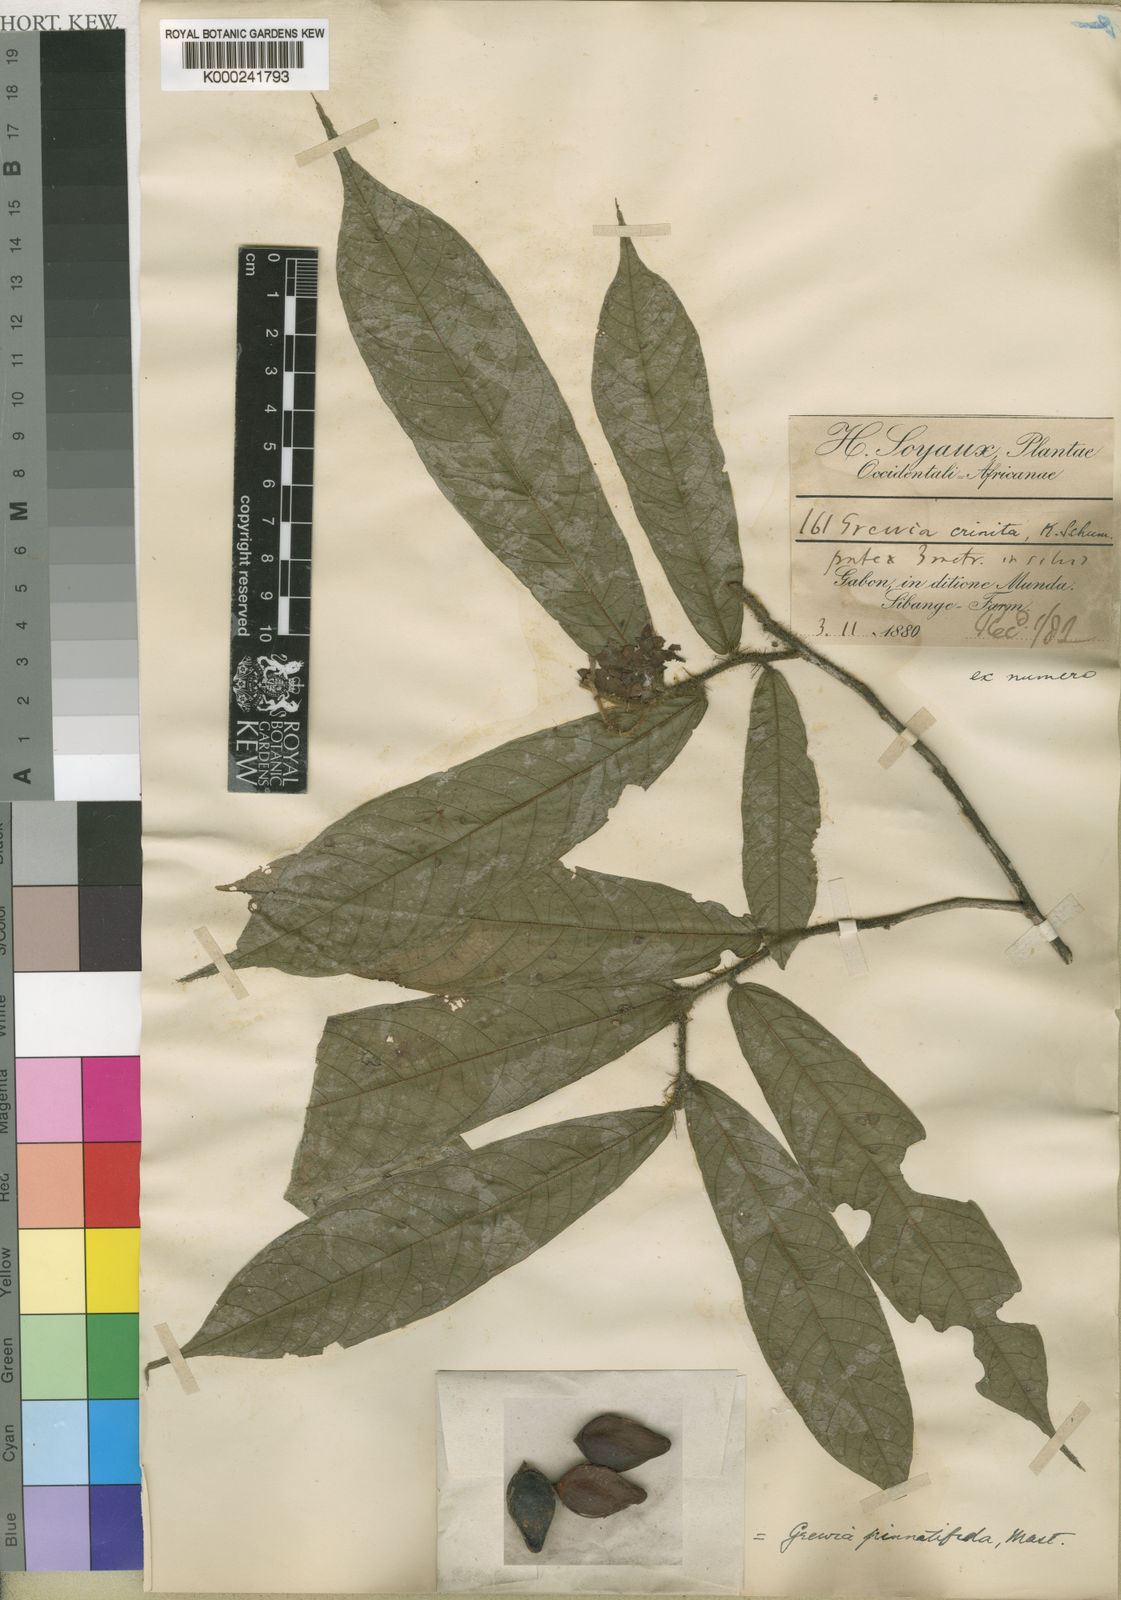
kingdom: Plantae
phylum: Tracheophyta
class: Magnoliopsida
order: Malvales
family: Malvaceae
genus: Microcos
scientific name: Microcos pinnatifida
